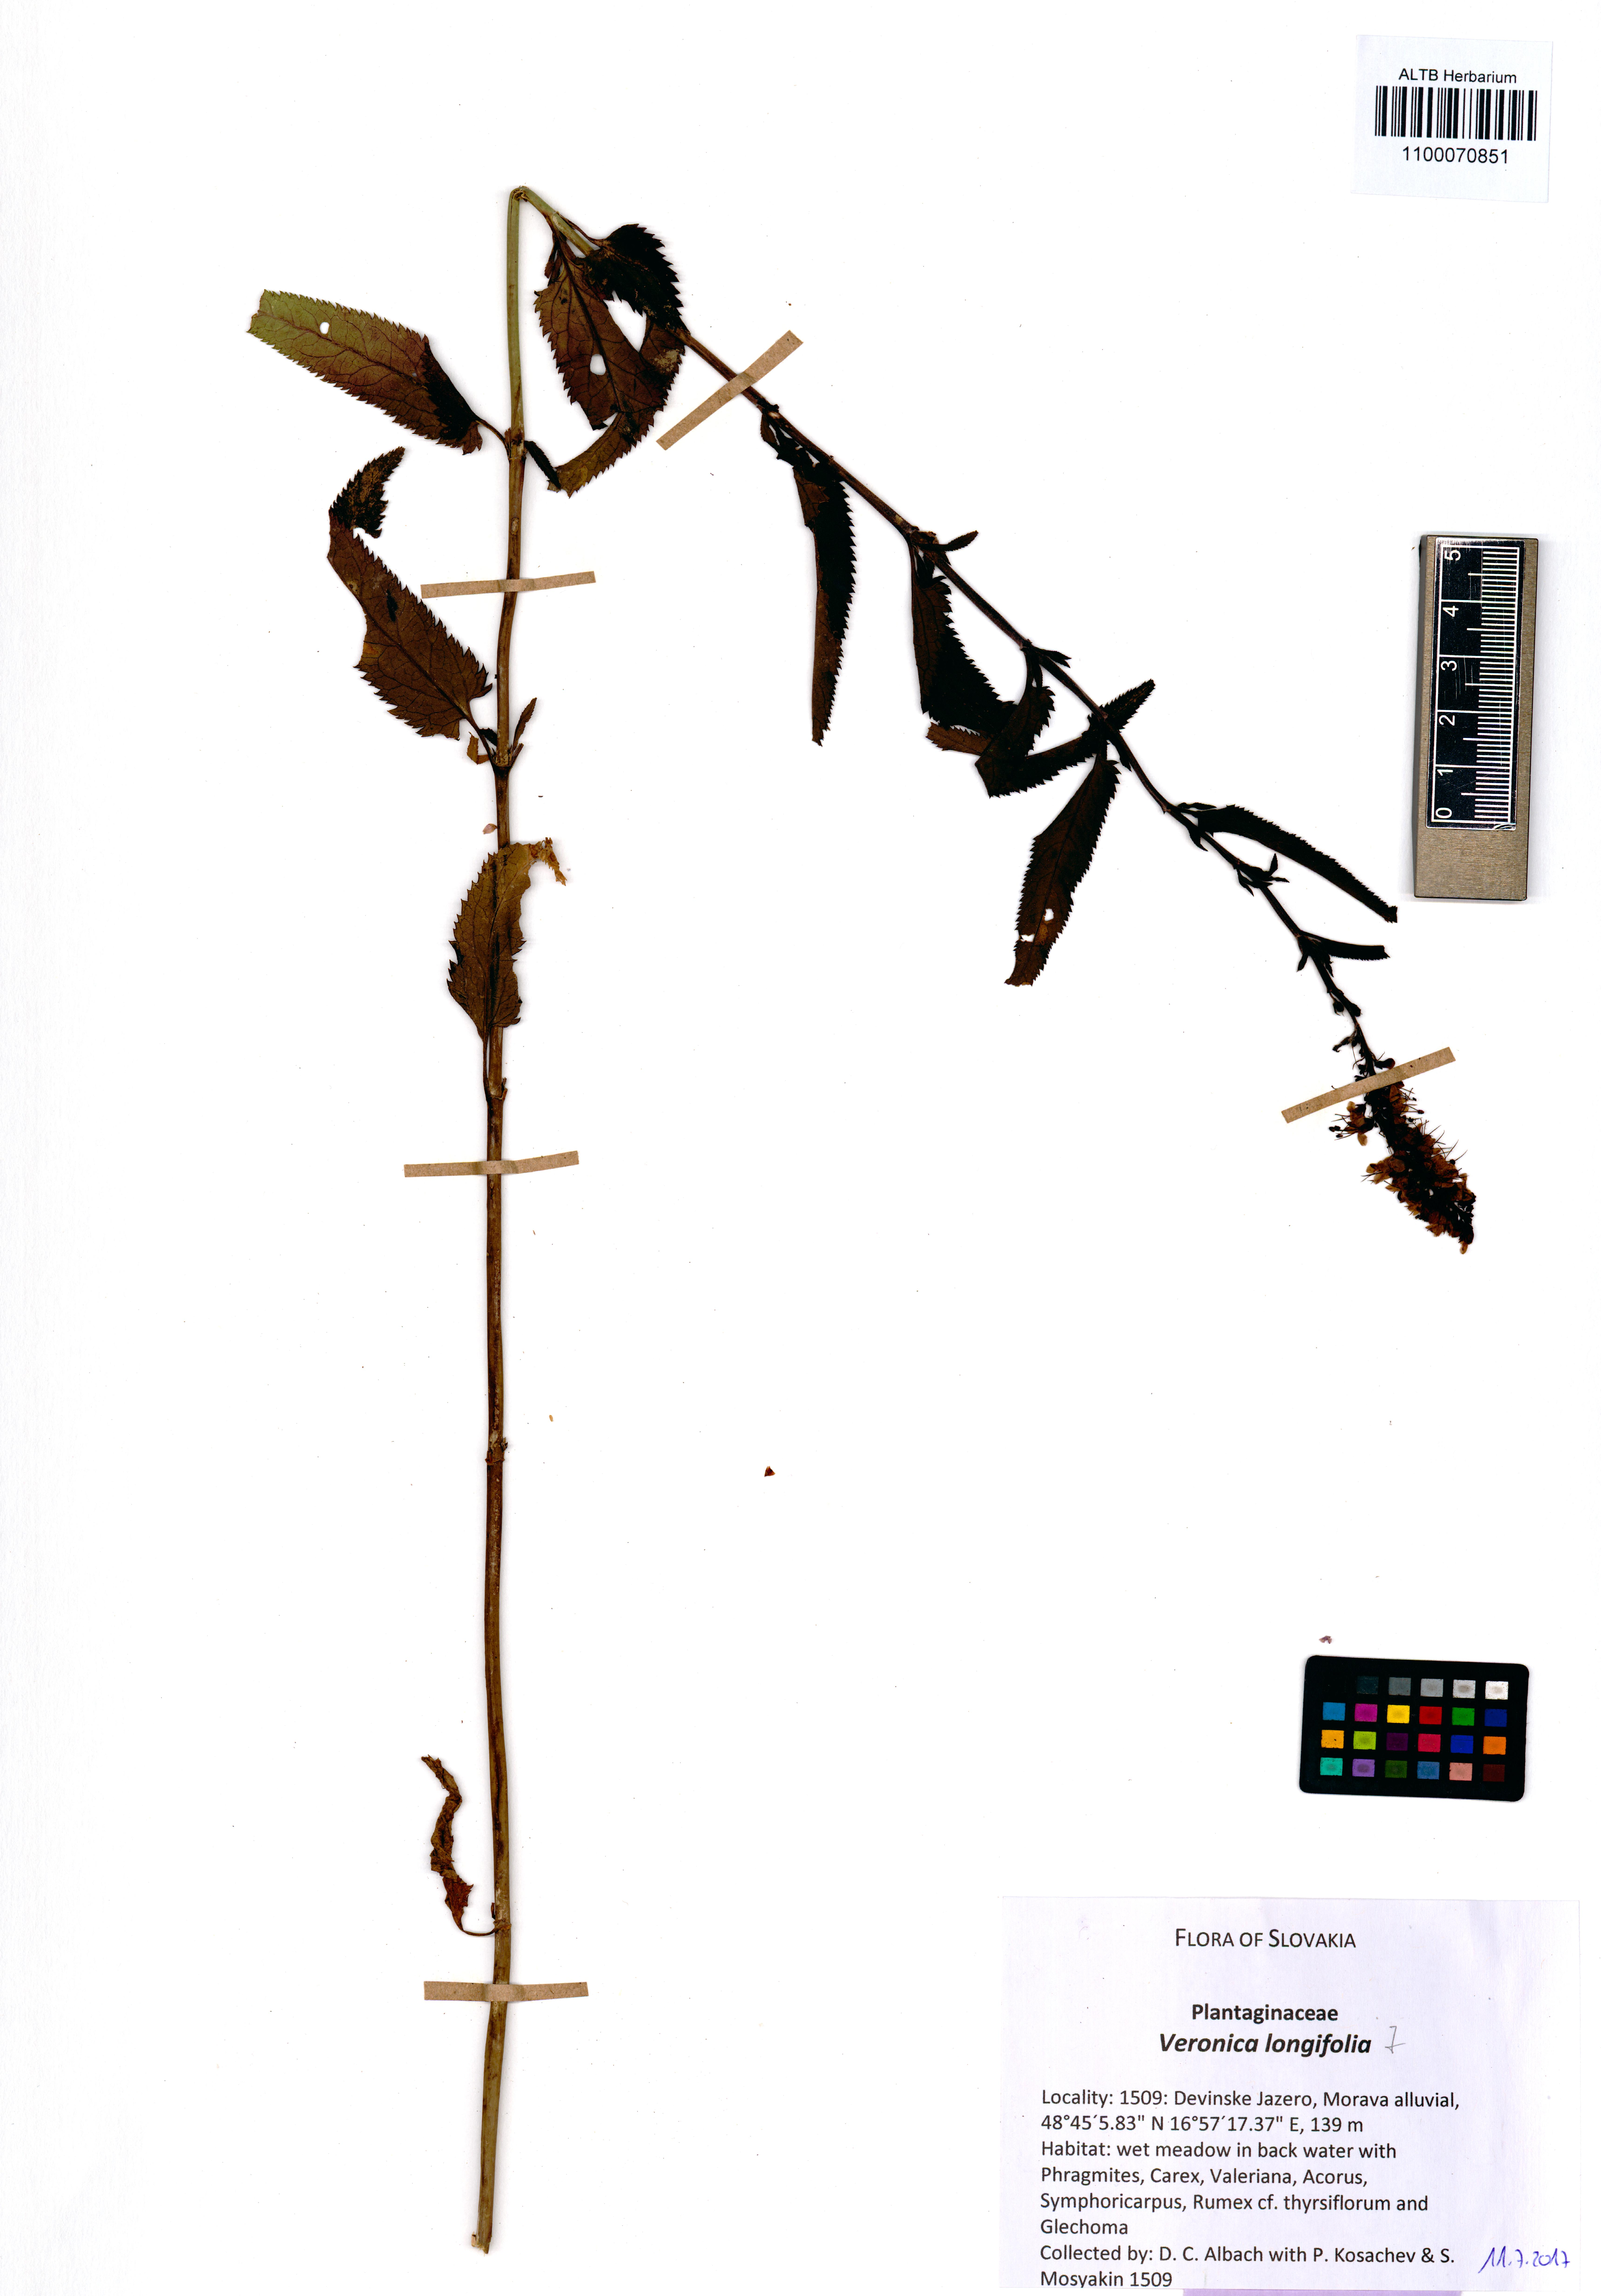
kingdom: Plantae
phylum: Tracheophyta
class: Magnoliopsida
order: Lamiales
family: Plantaginaceae
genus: Veronica
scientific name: Veronica longifolia
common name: Garden speedwell
